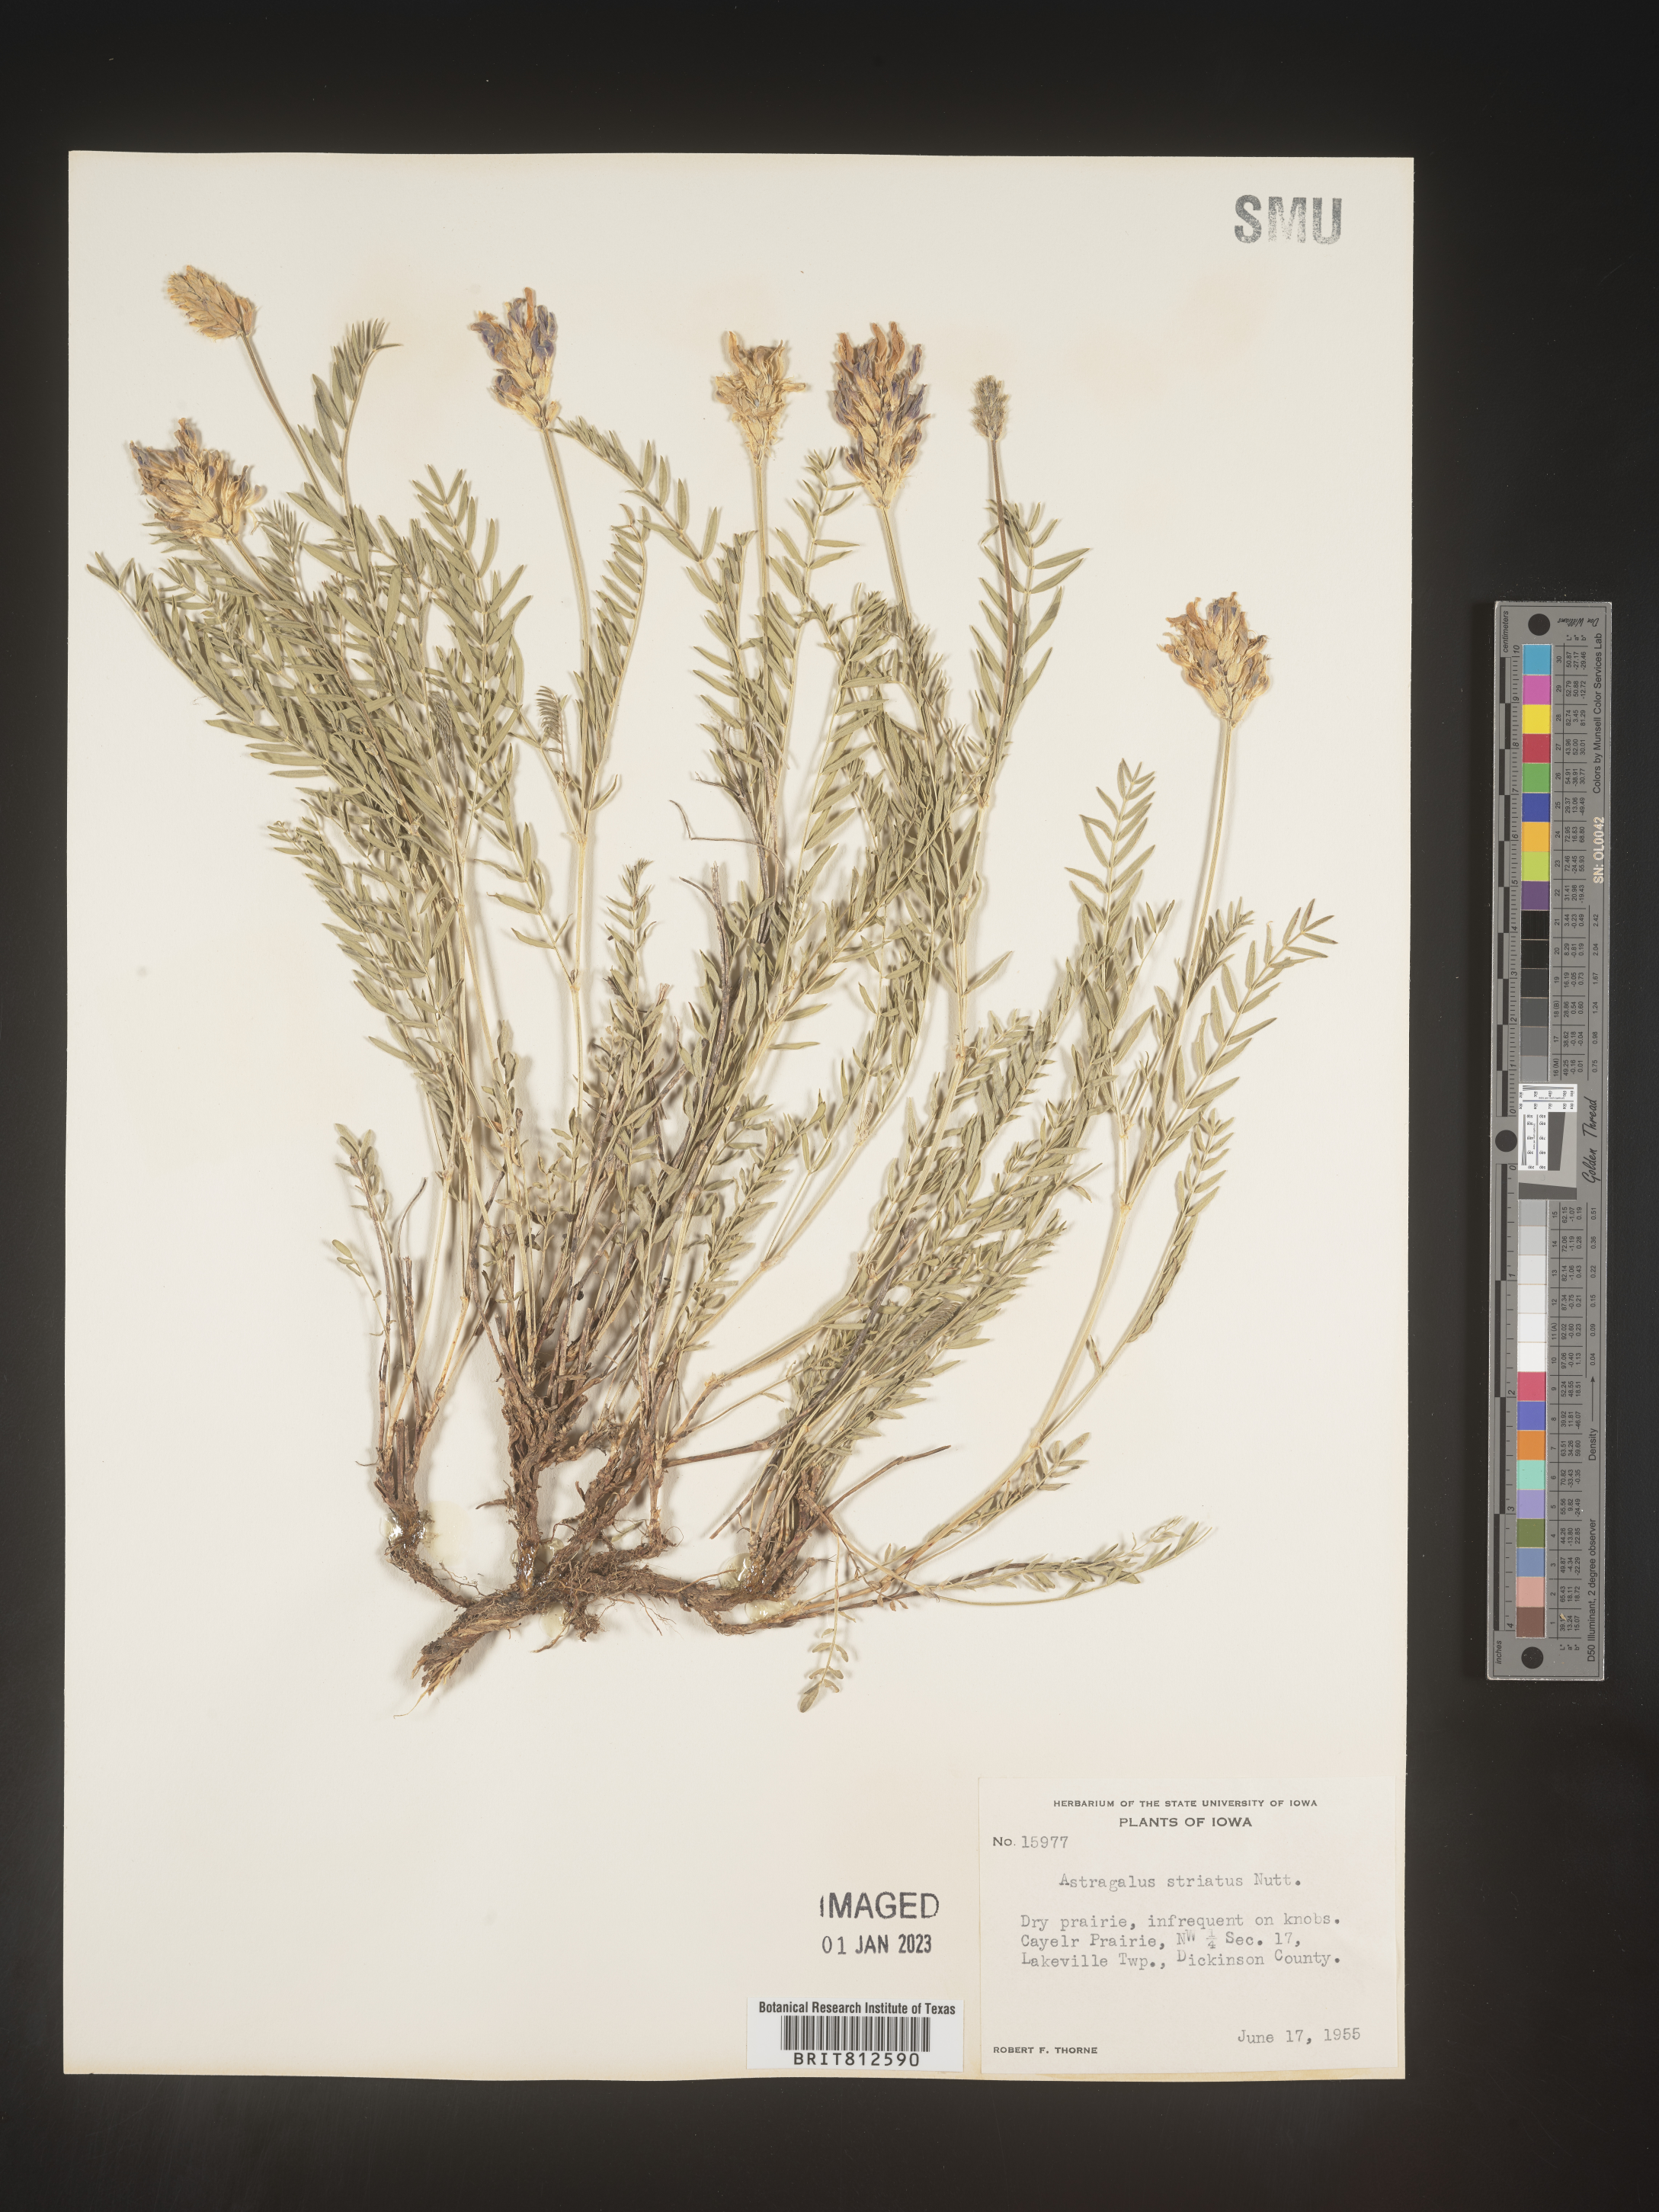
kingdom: Plantae
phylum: Tracheophyta
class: Magnoliopsida
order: Fabales
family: Fabaceae
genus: Astragalus
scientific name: Astragalus laxmannii
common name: Laxmann's milk-vetch
